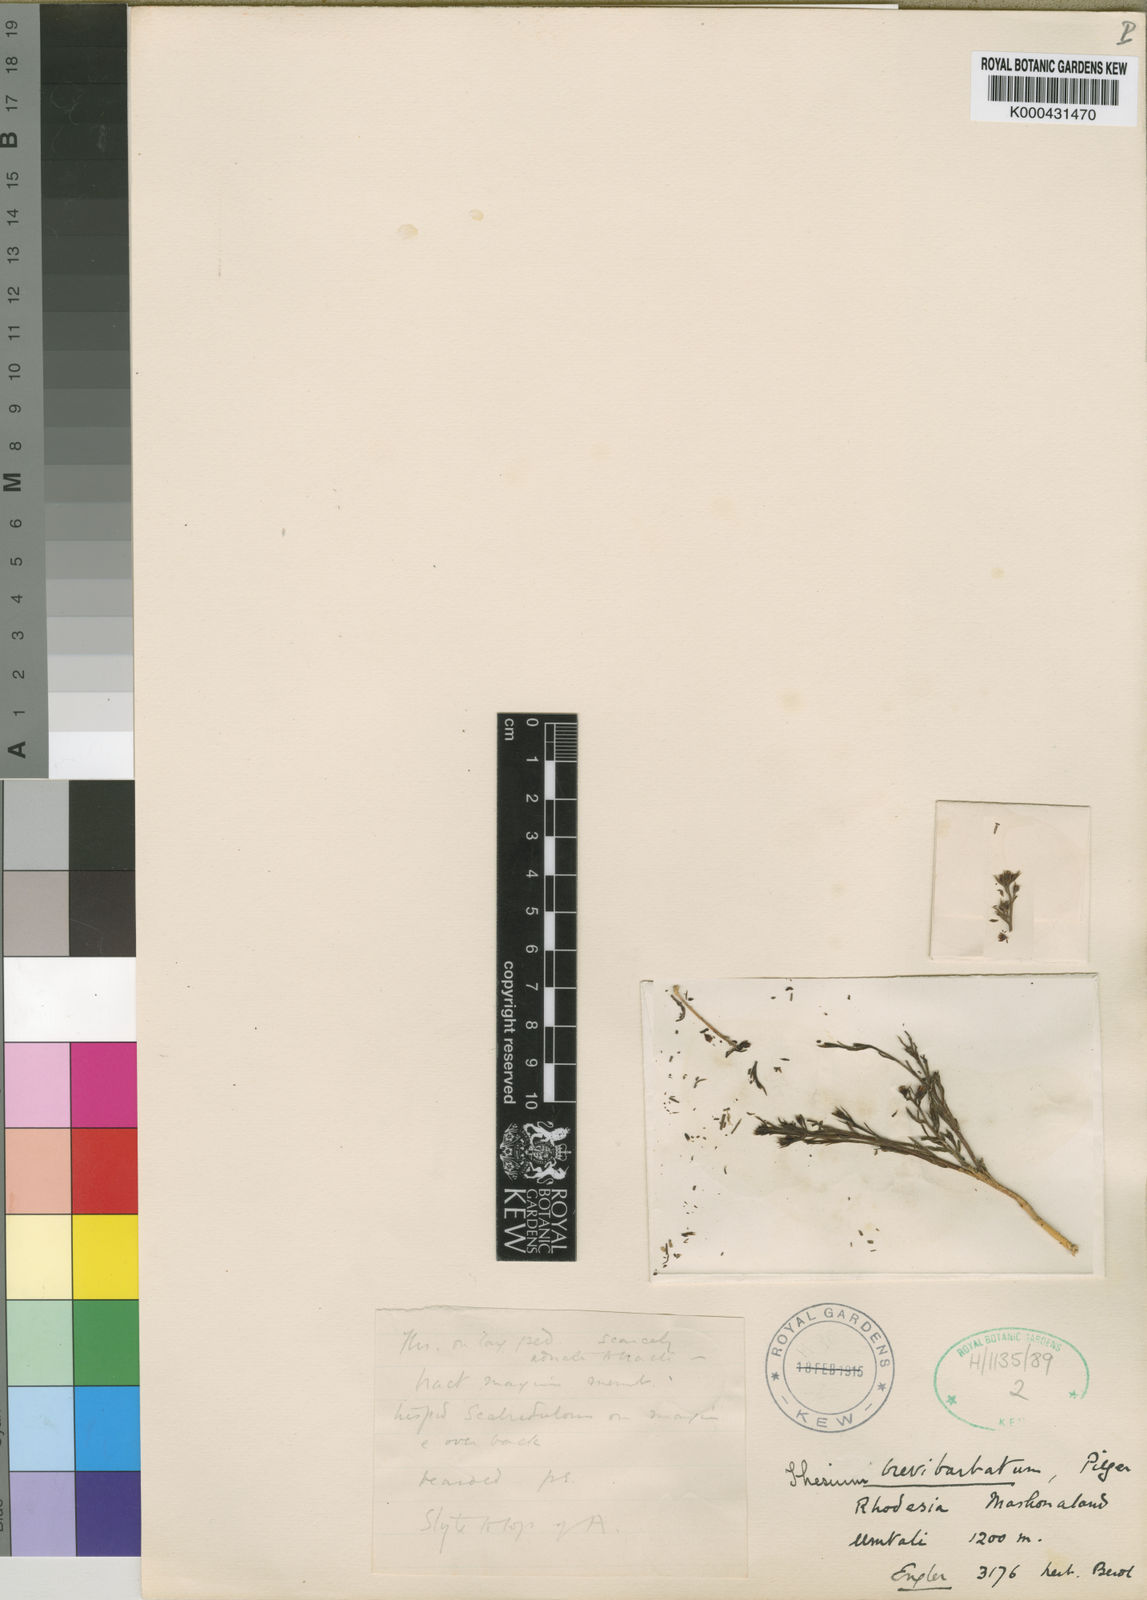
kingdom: Plantae
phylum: Tracheophyta
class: Magnoliopsida
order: Santalales
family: Thesiaceae
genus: Thesium
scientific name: Thesium brevibarbatum
